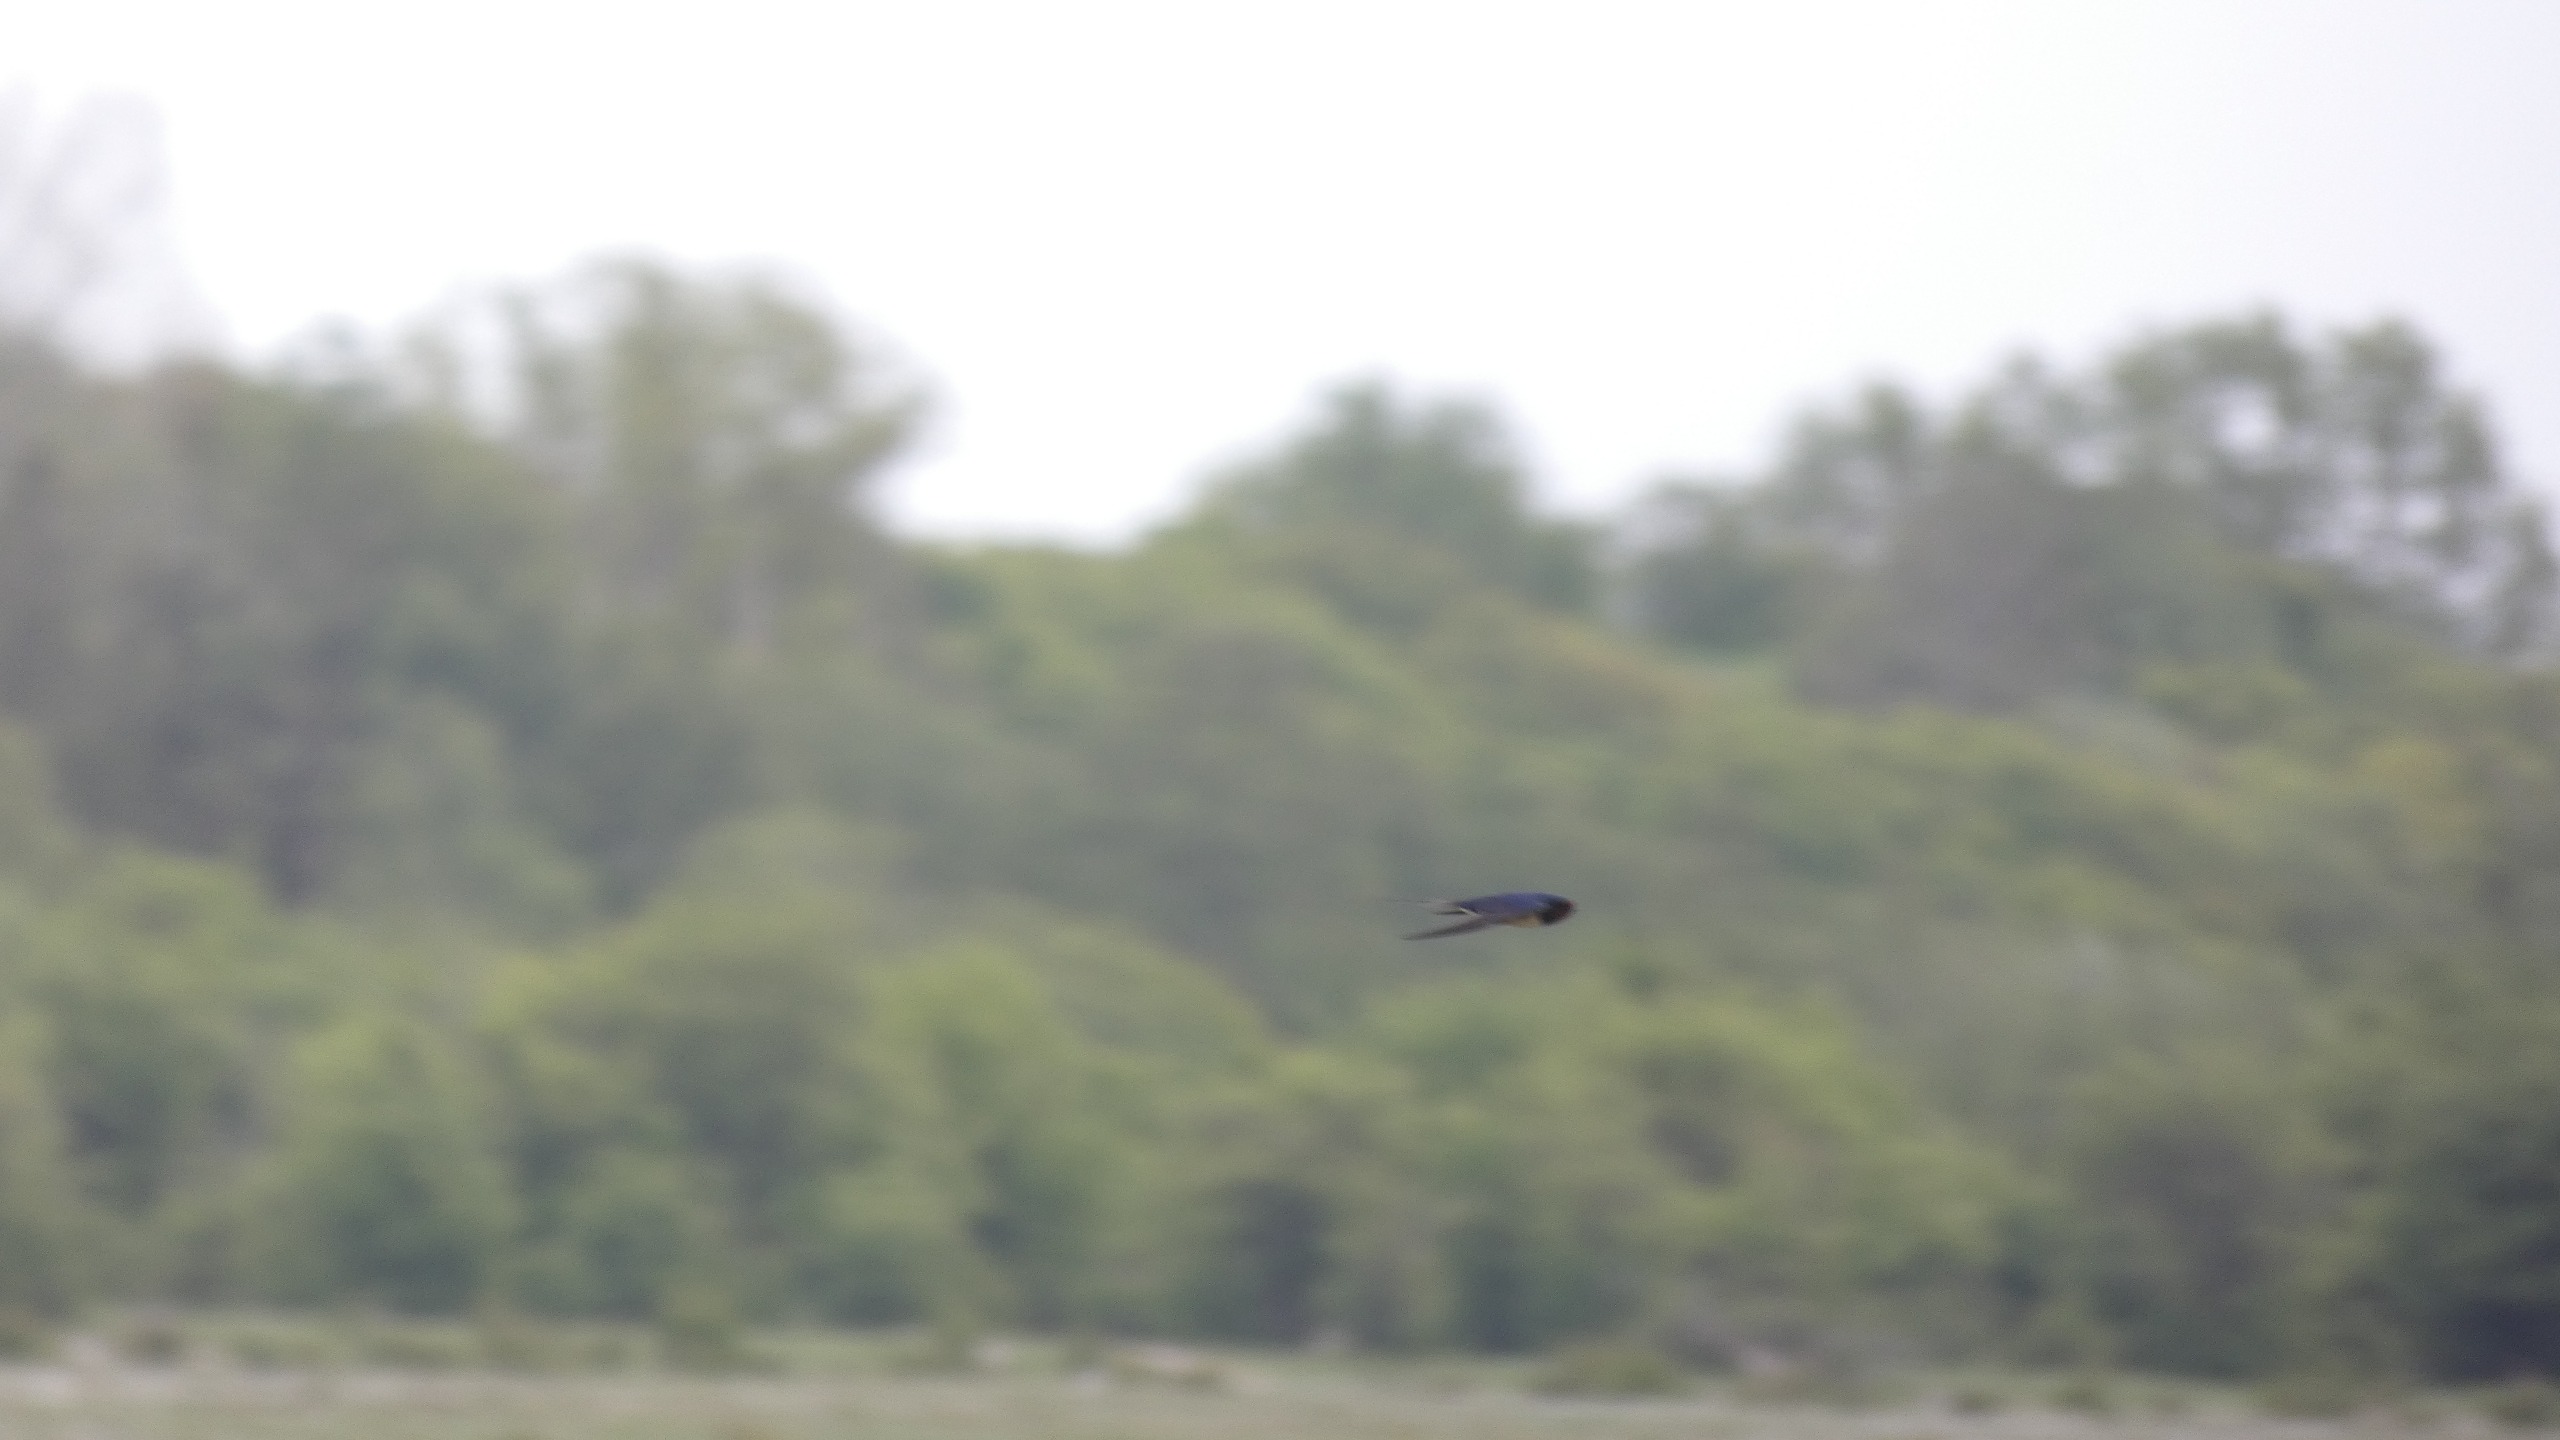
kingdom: Animalia
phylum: Chordata
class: Aves
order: Passeriformes
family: Hirundinidae
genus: Hirundo
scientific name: Hirundo rustica
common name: Landsvale
